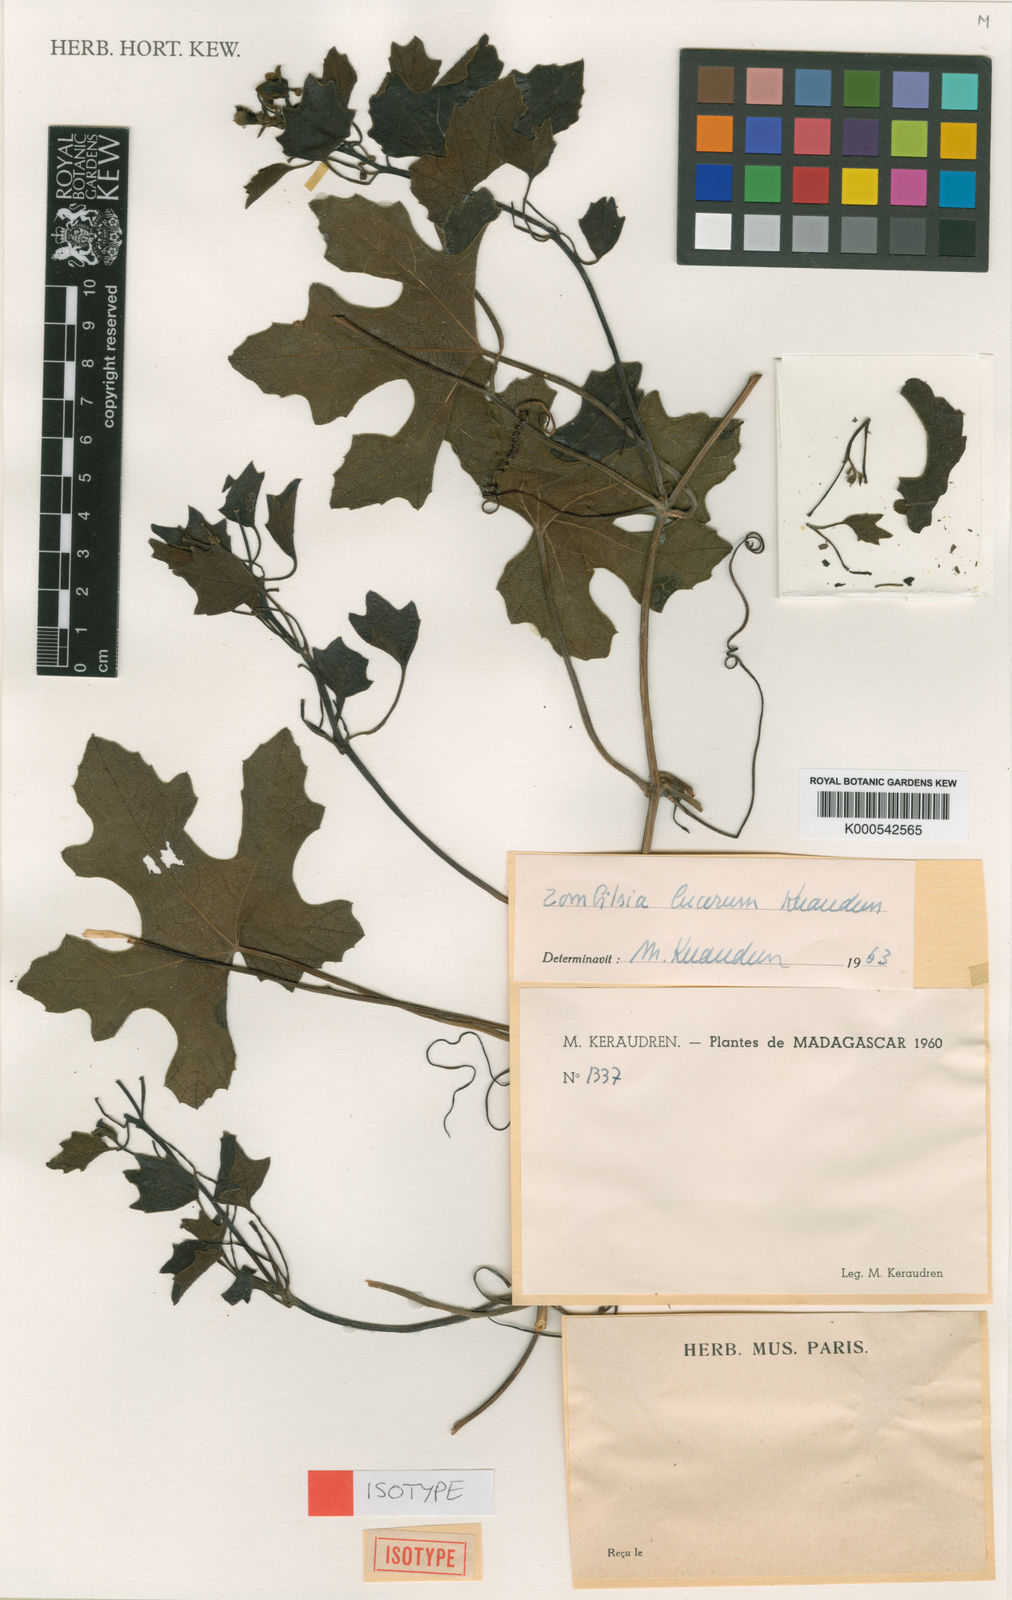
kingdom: Plantae
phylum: Tracheophyta
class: Magnoliopsida
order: Cucurbitales
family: Cucurbitaceae
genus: Blastania
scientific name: Blastania lucorum
